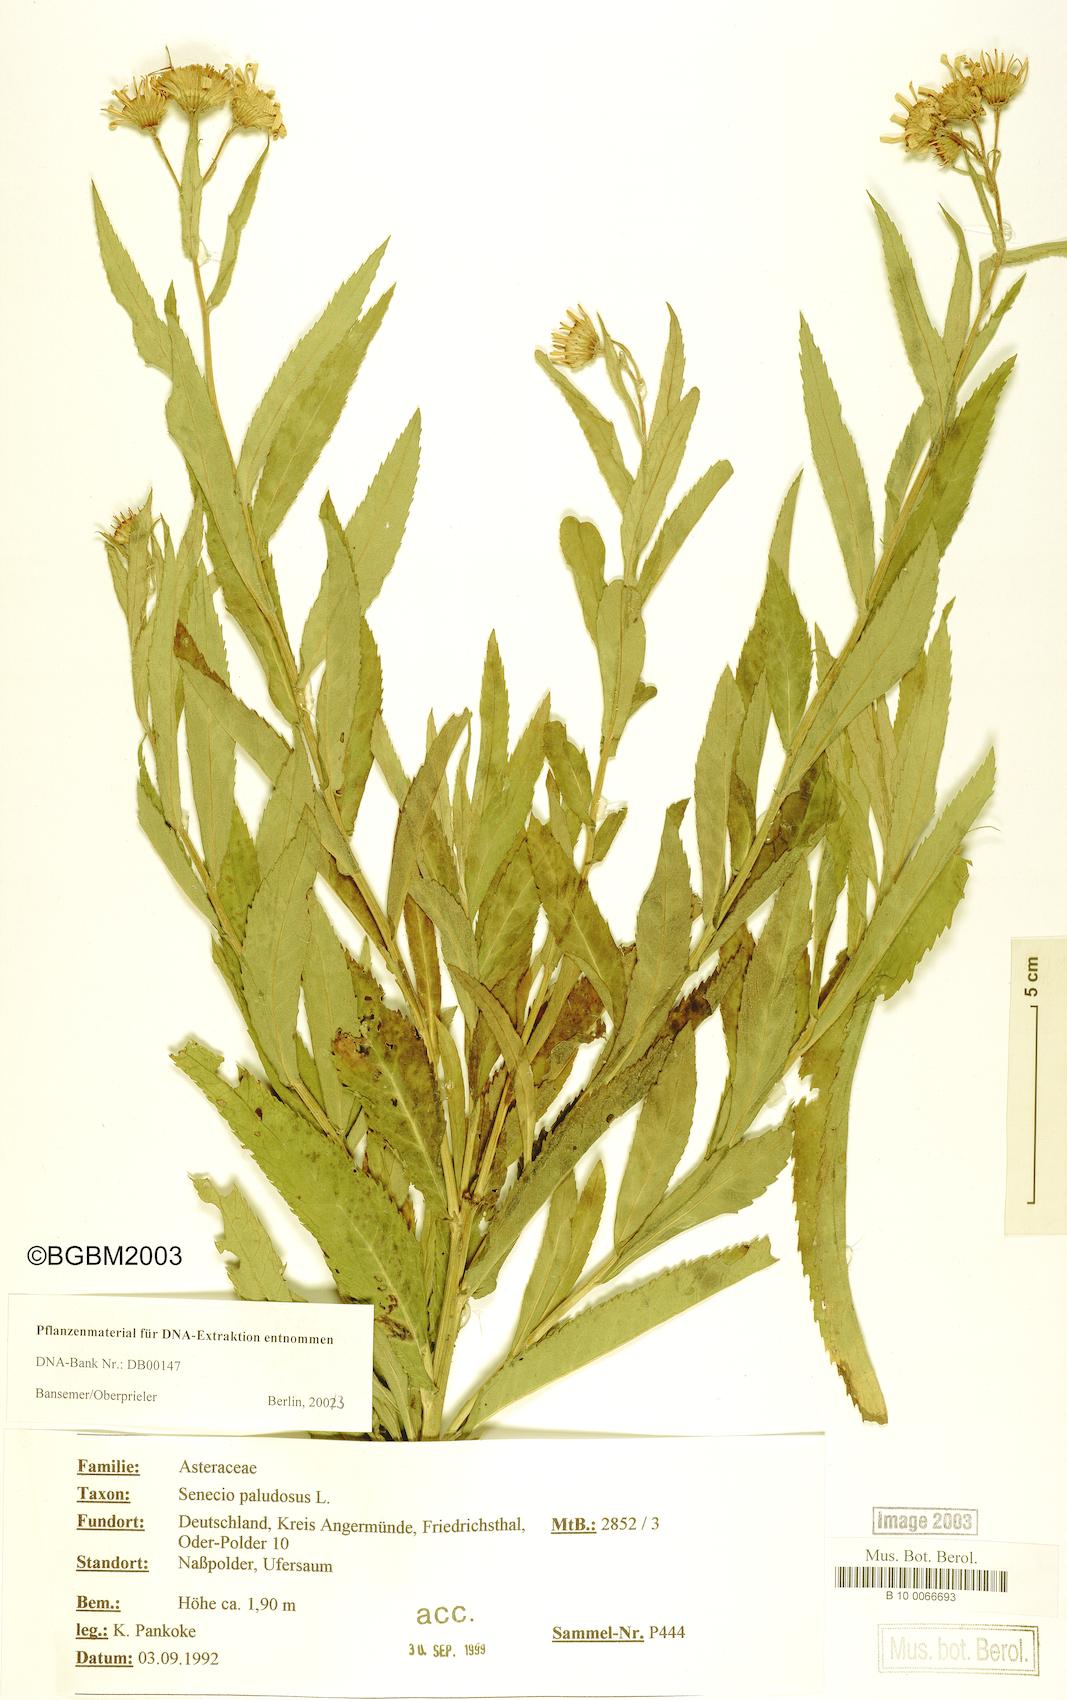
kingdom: Plantae
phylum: Tracheophyta
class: Magnoliopsida
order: Asterales
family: Asteraceae
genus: Jacobaea
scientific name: Jacobaea paludosa
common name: Fen ragwort
